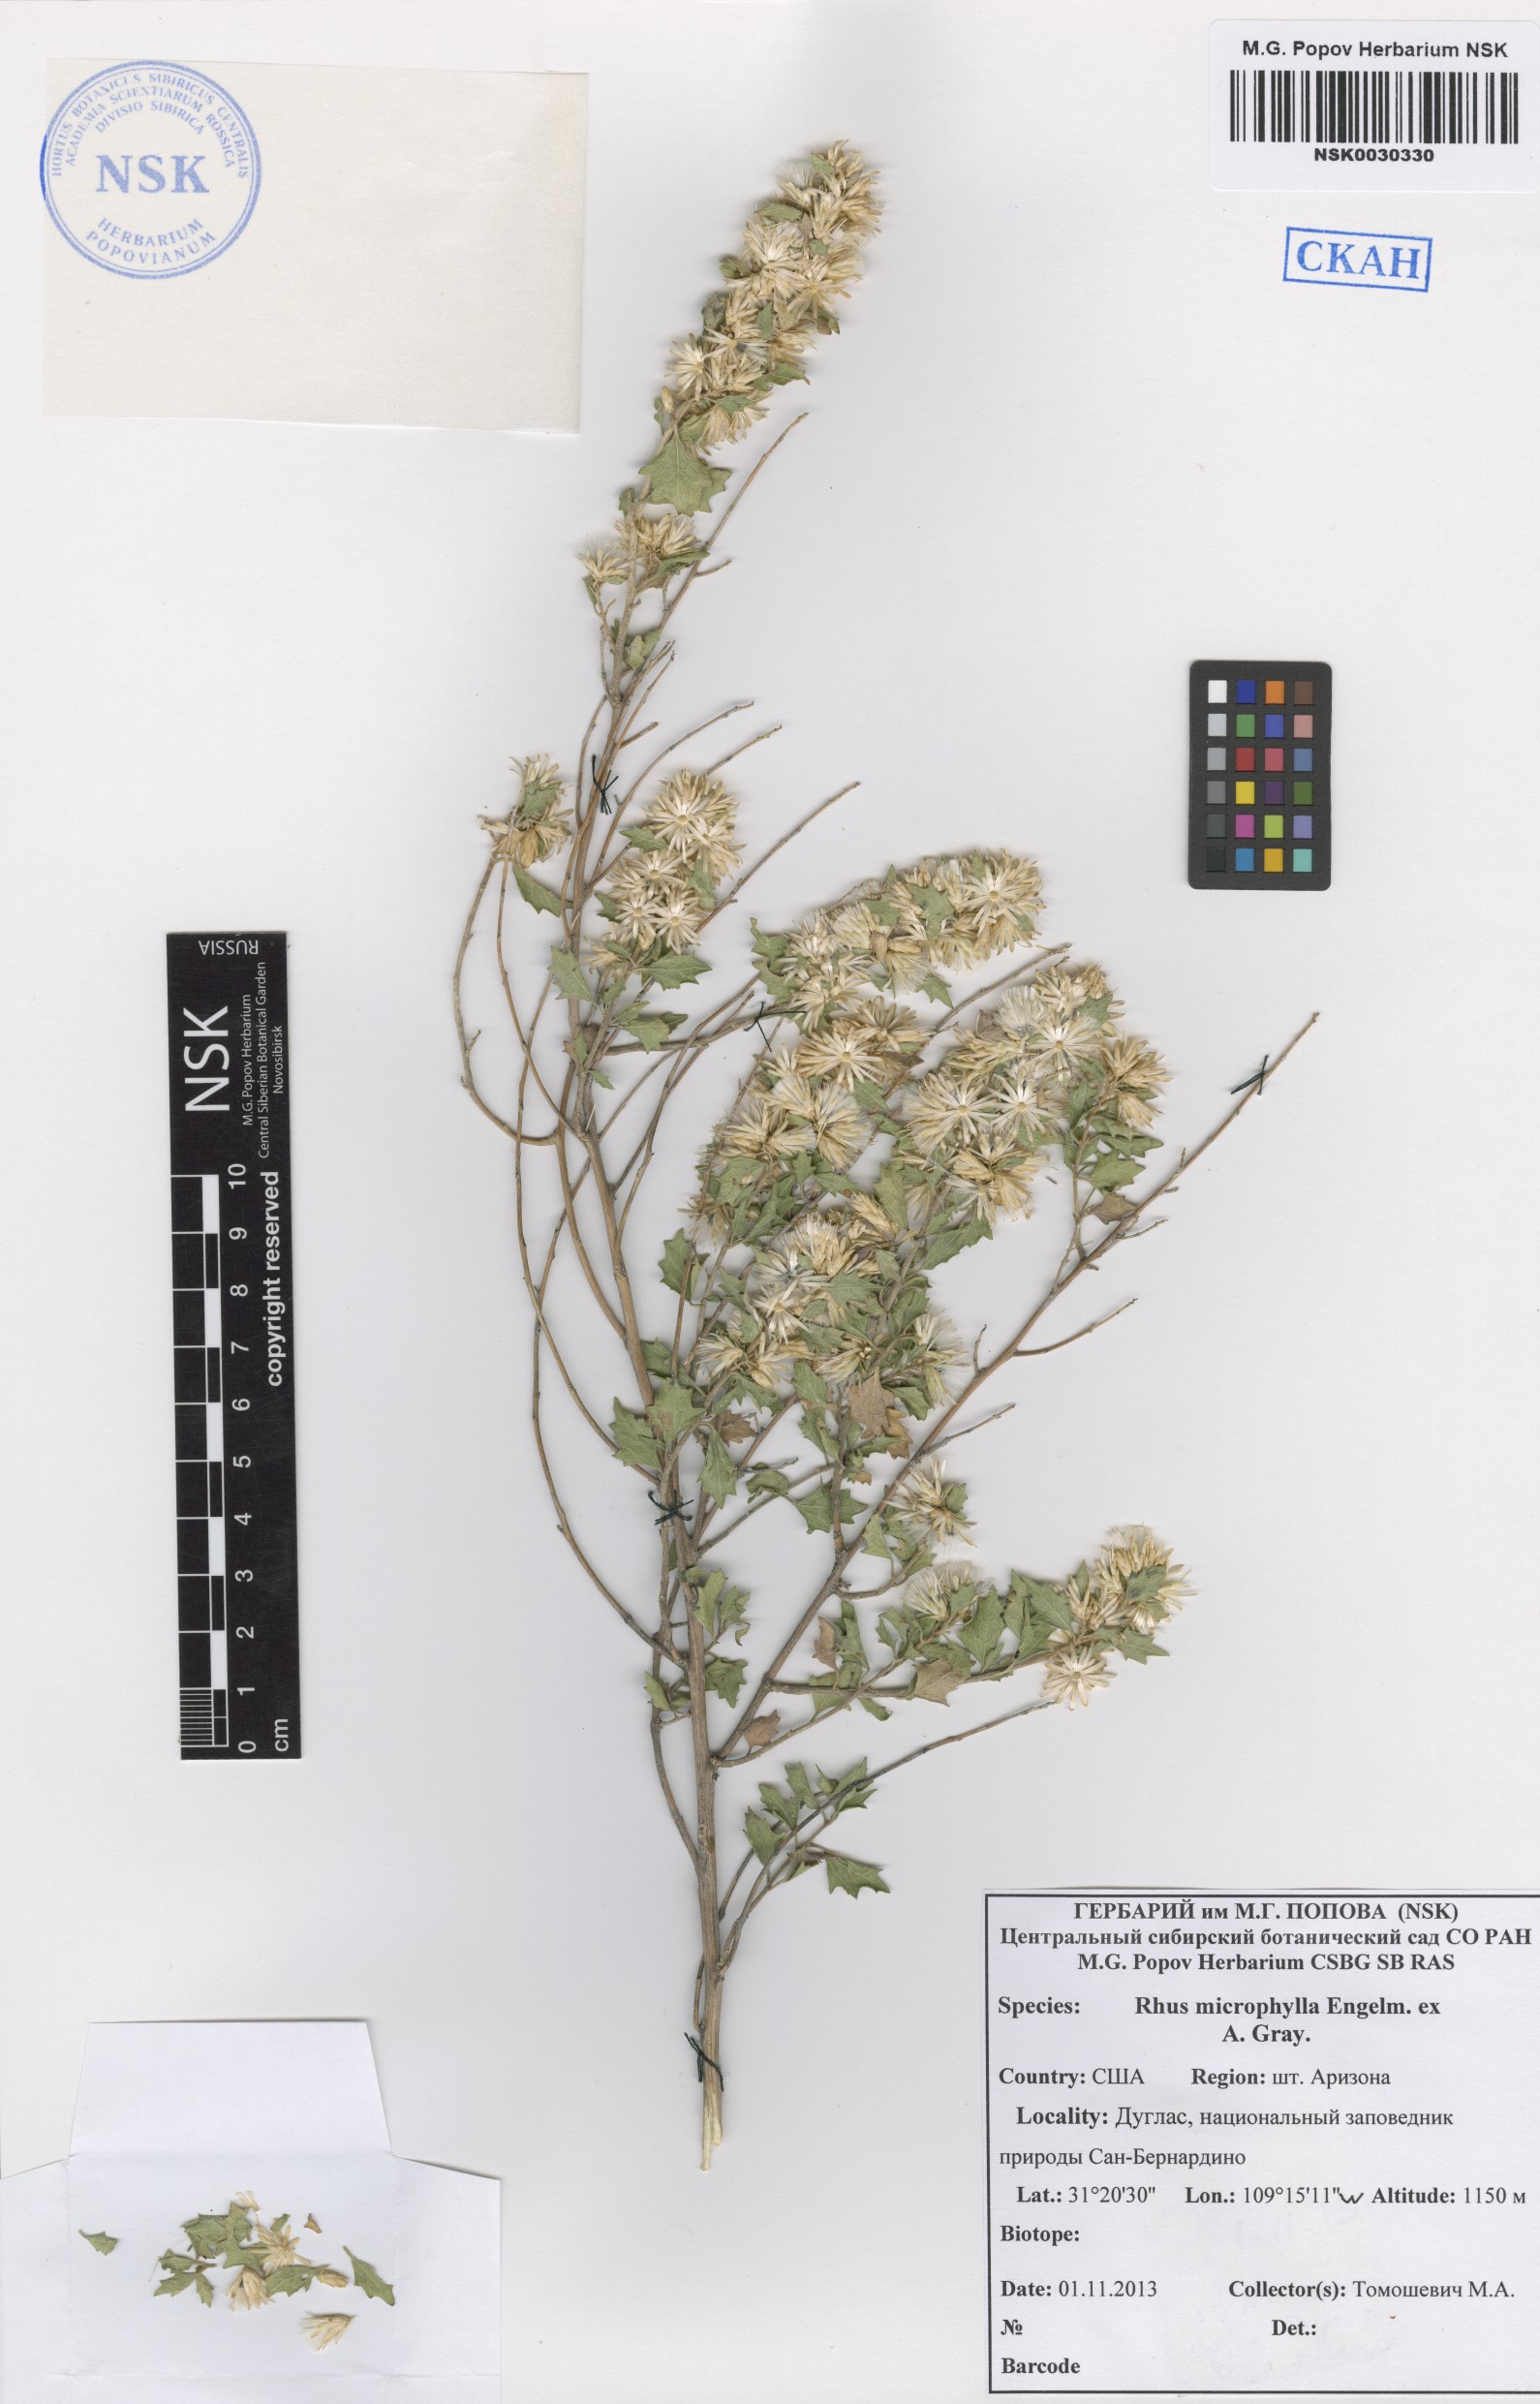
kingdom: Plantae
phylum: Tracheophyta
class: Magnoliopsida
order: Sapindales
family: Anacardiaceae
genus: Rhus
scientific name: Rhus microphylla
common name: Desert sumac
